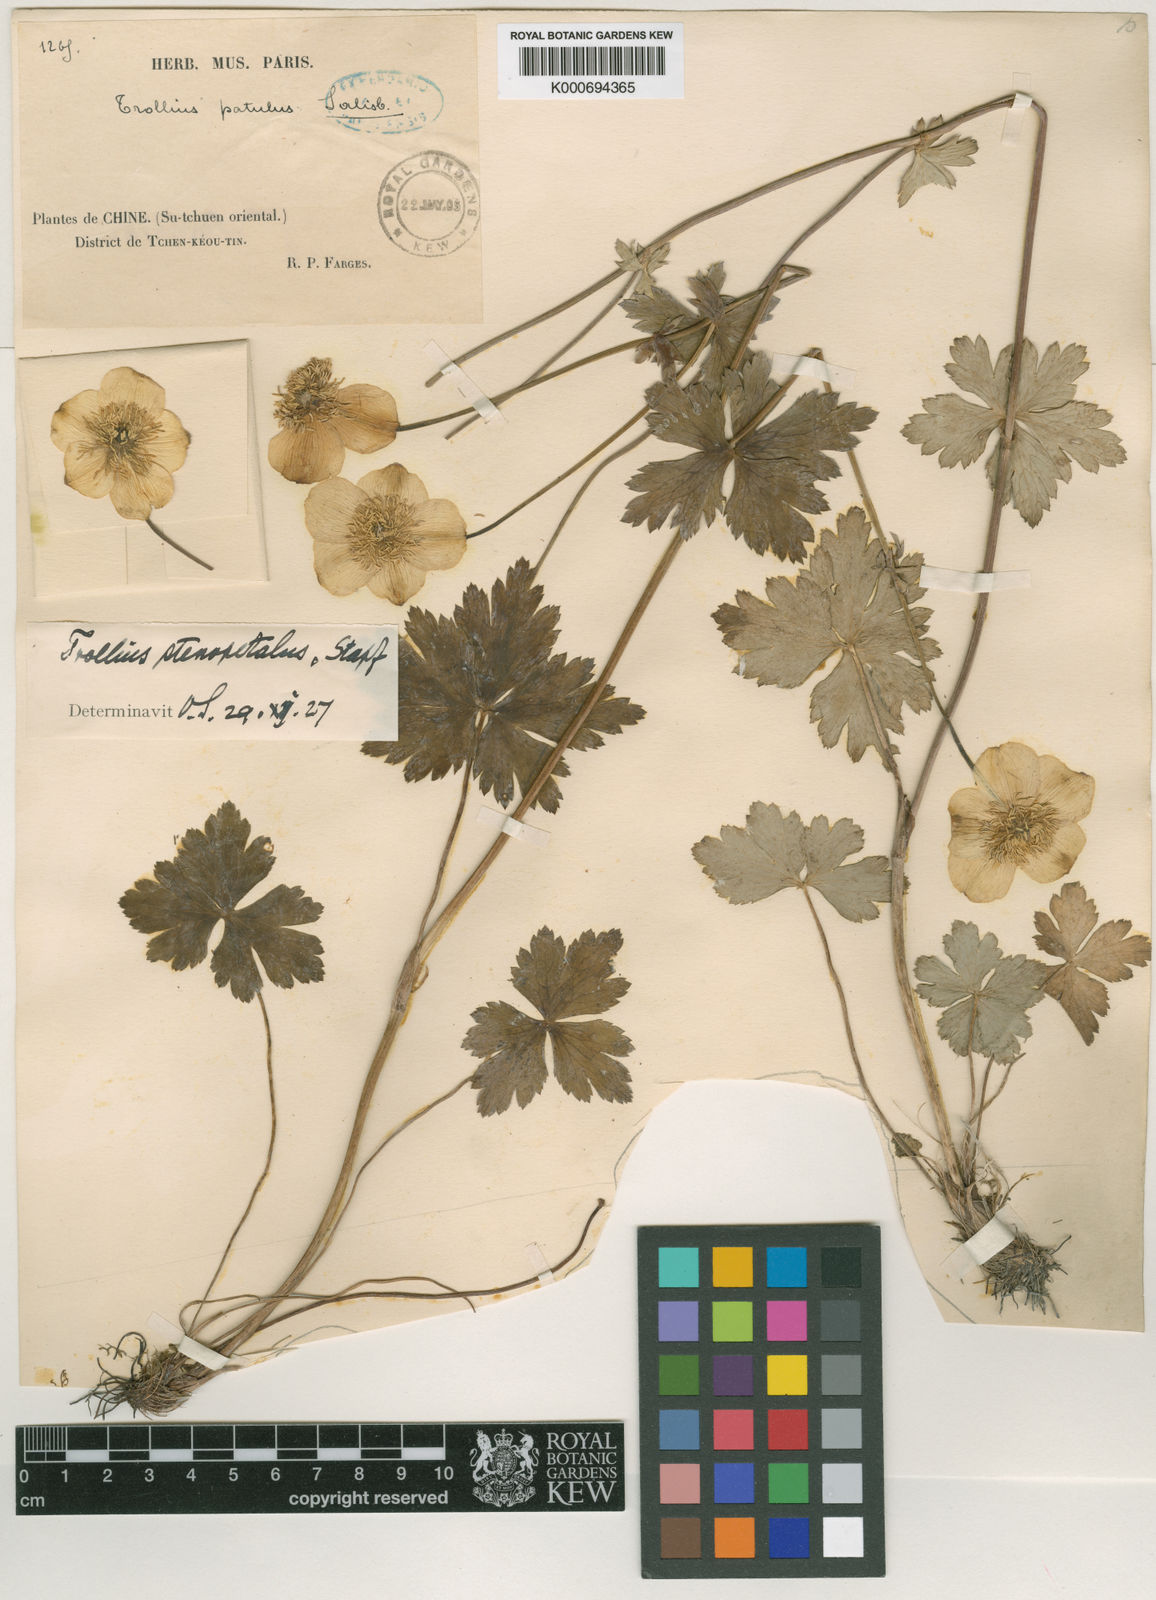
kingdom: Plantae
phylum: Tracheophyta
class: Magnoliopsida
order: Ranunculales
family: Ranunculaceae
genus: Trollius
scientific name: Trollius buddae
